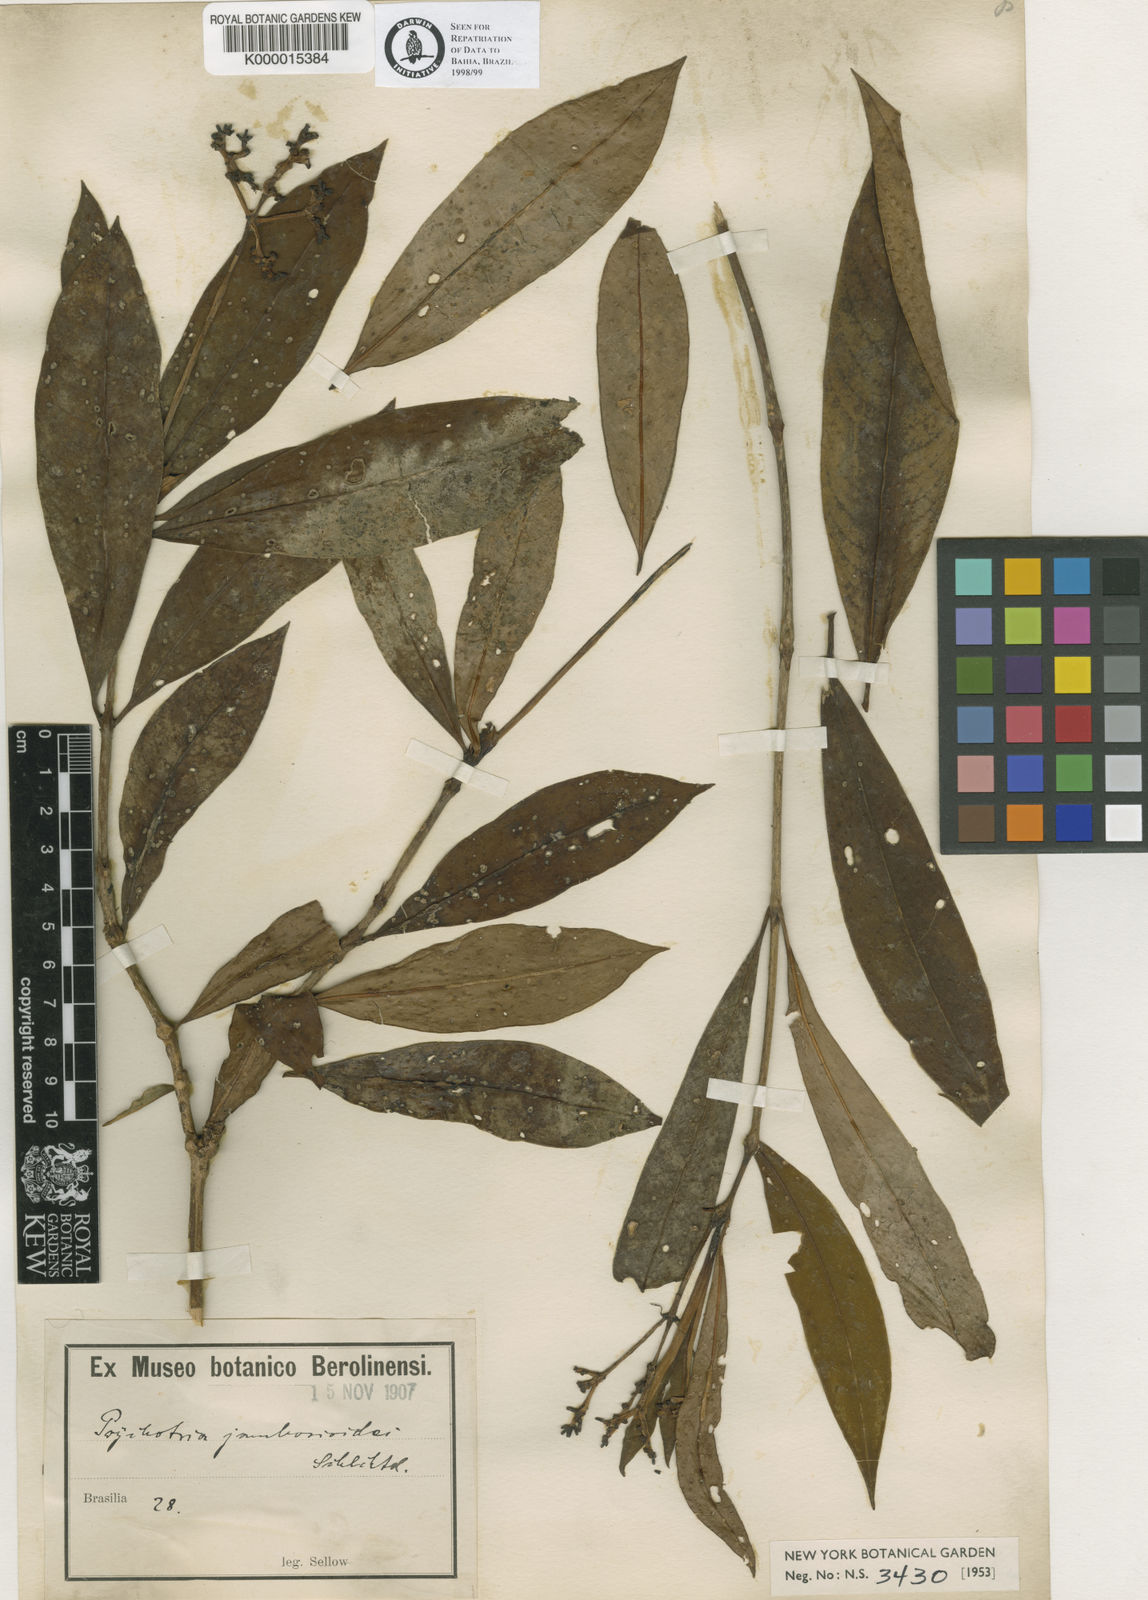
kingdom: Plantae
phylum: Tracheophyta
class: Magnoliopsida
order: Gentianales
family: Rubiaceae
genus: Palicourea
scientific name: Palicourea jambosioides
